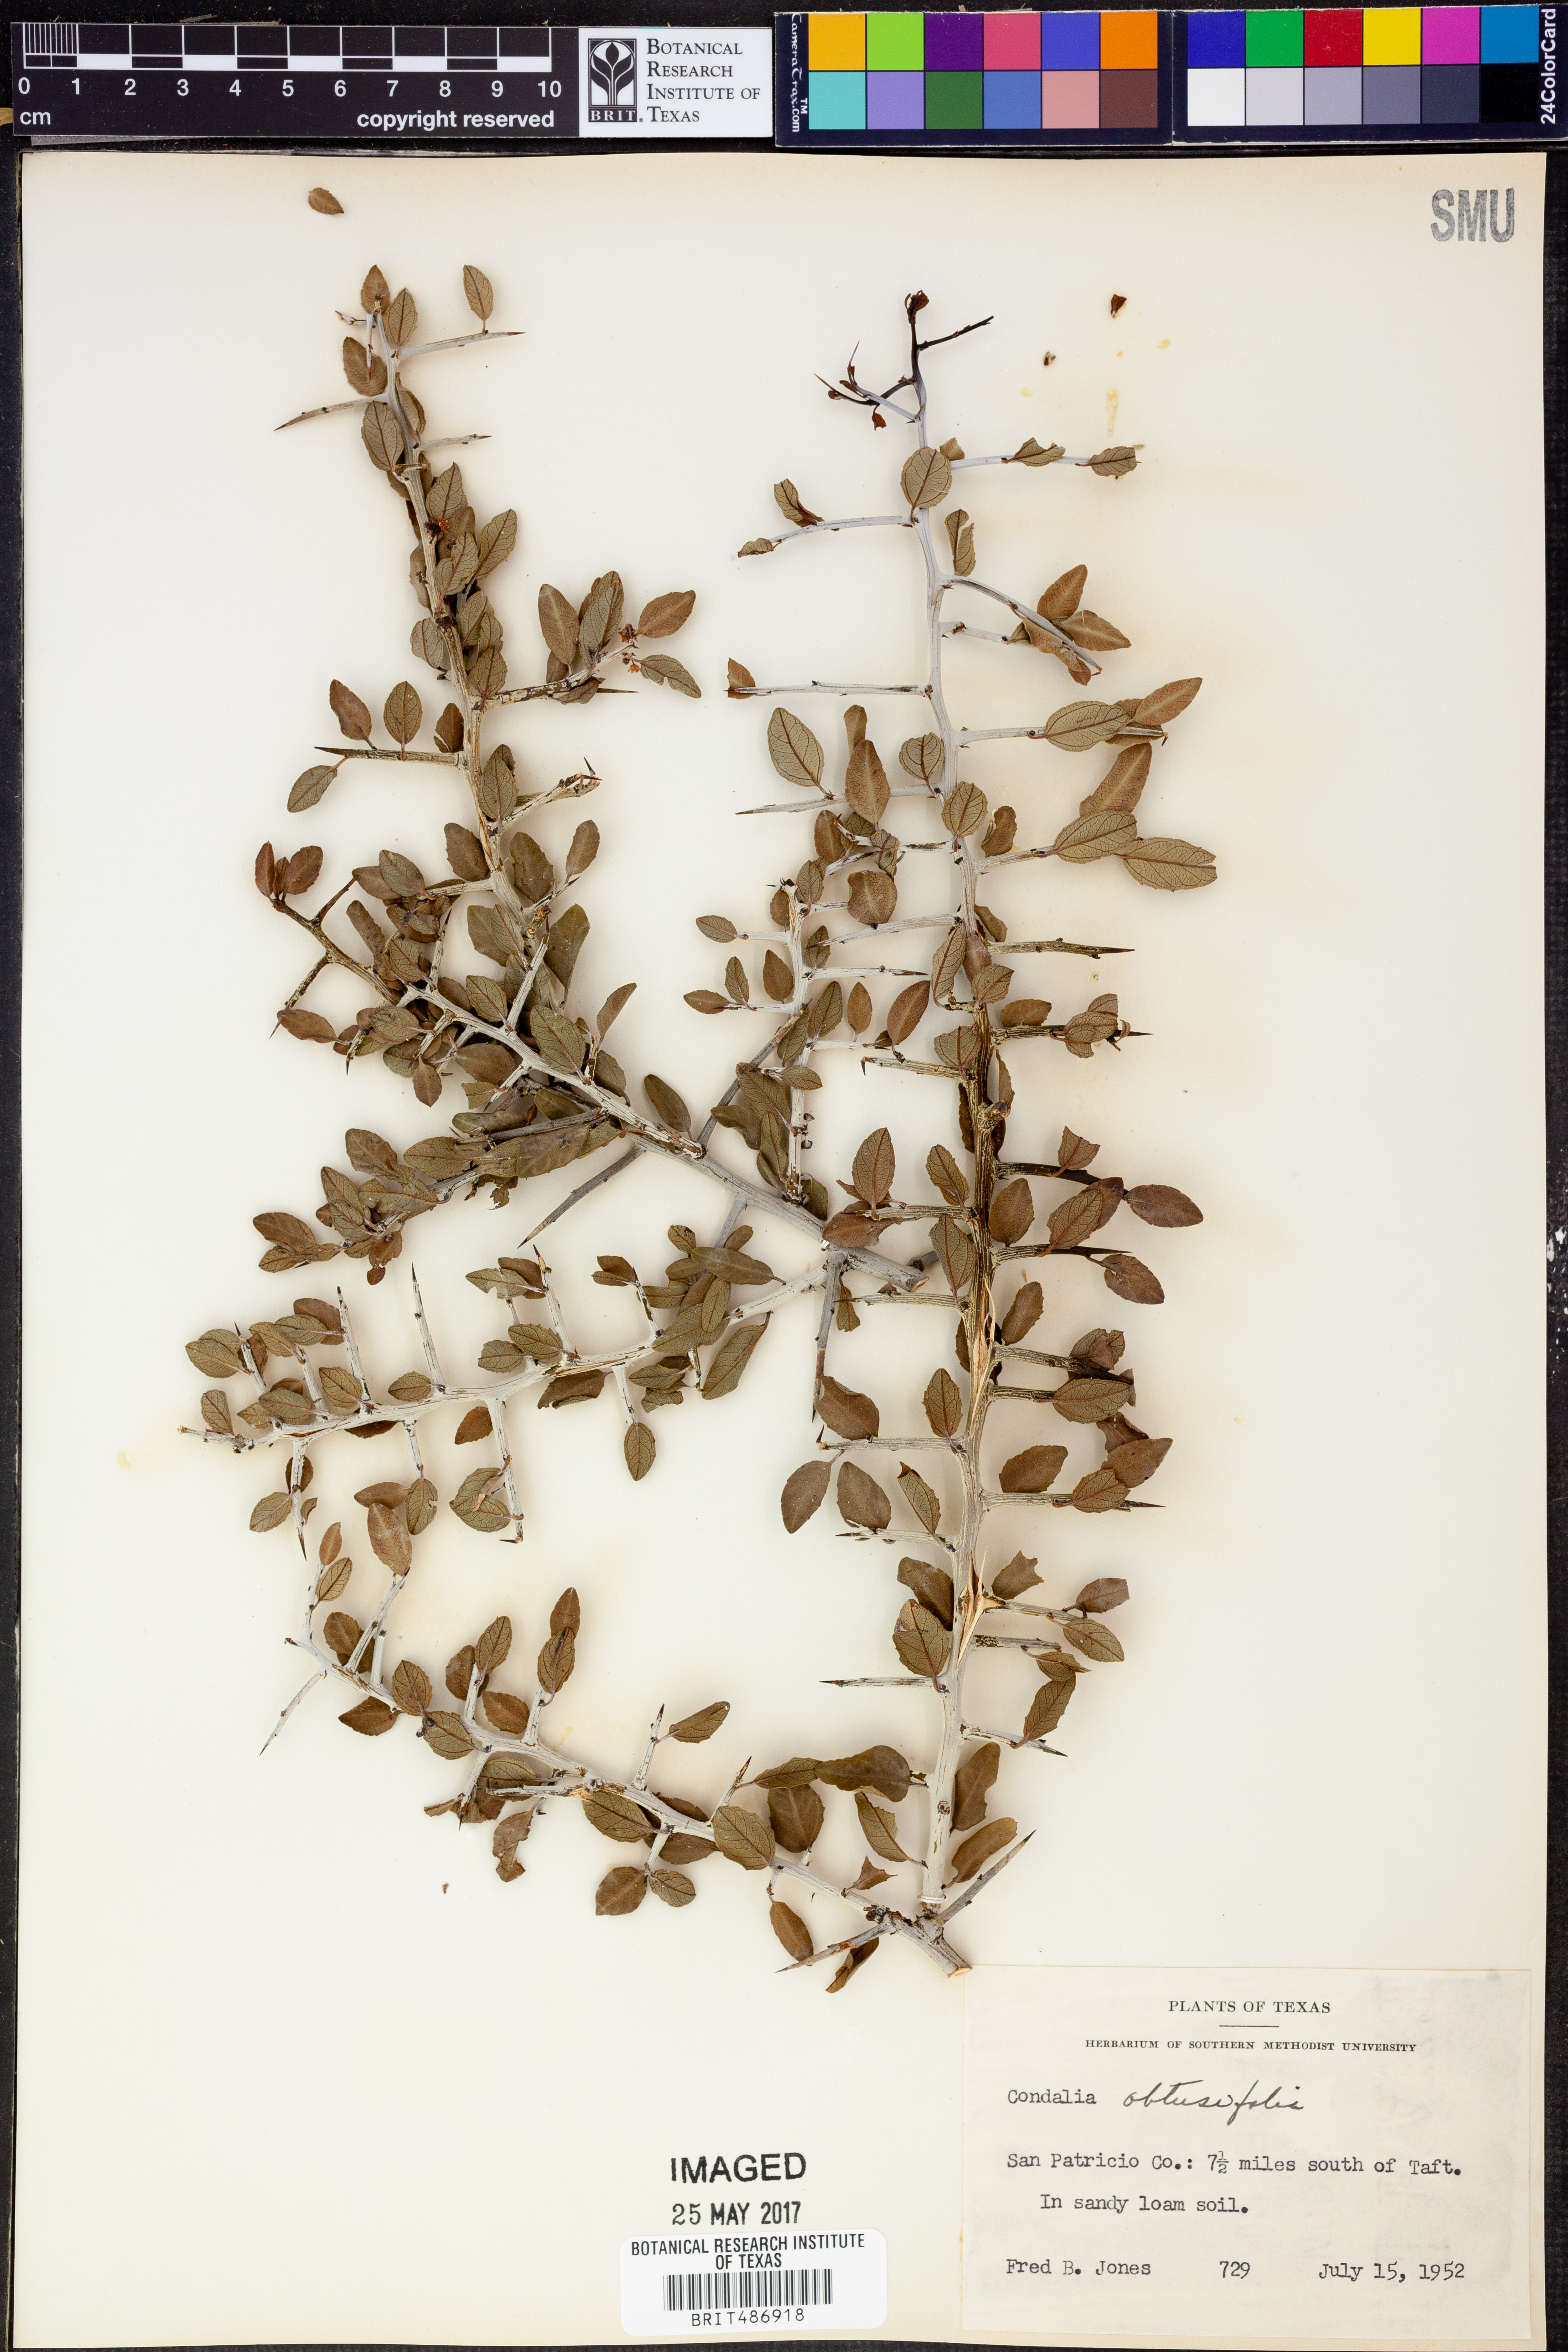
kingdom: Plantae
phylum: Tracheophyta
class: Magnoliopsida
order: Rosales
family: Rhamnaceae
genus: Sarcomphalus
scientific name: Sarcomphalus obtusifolius
